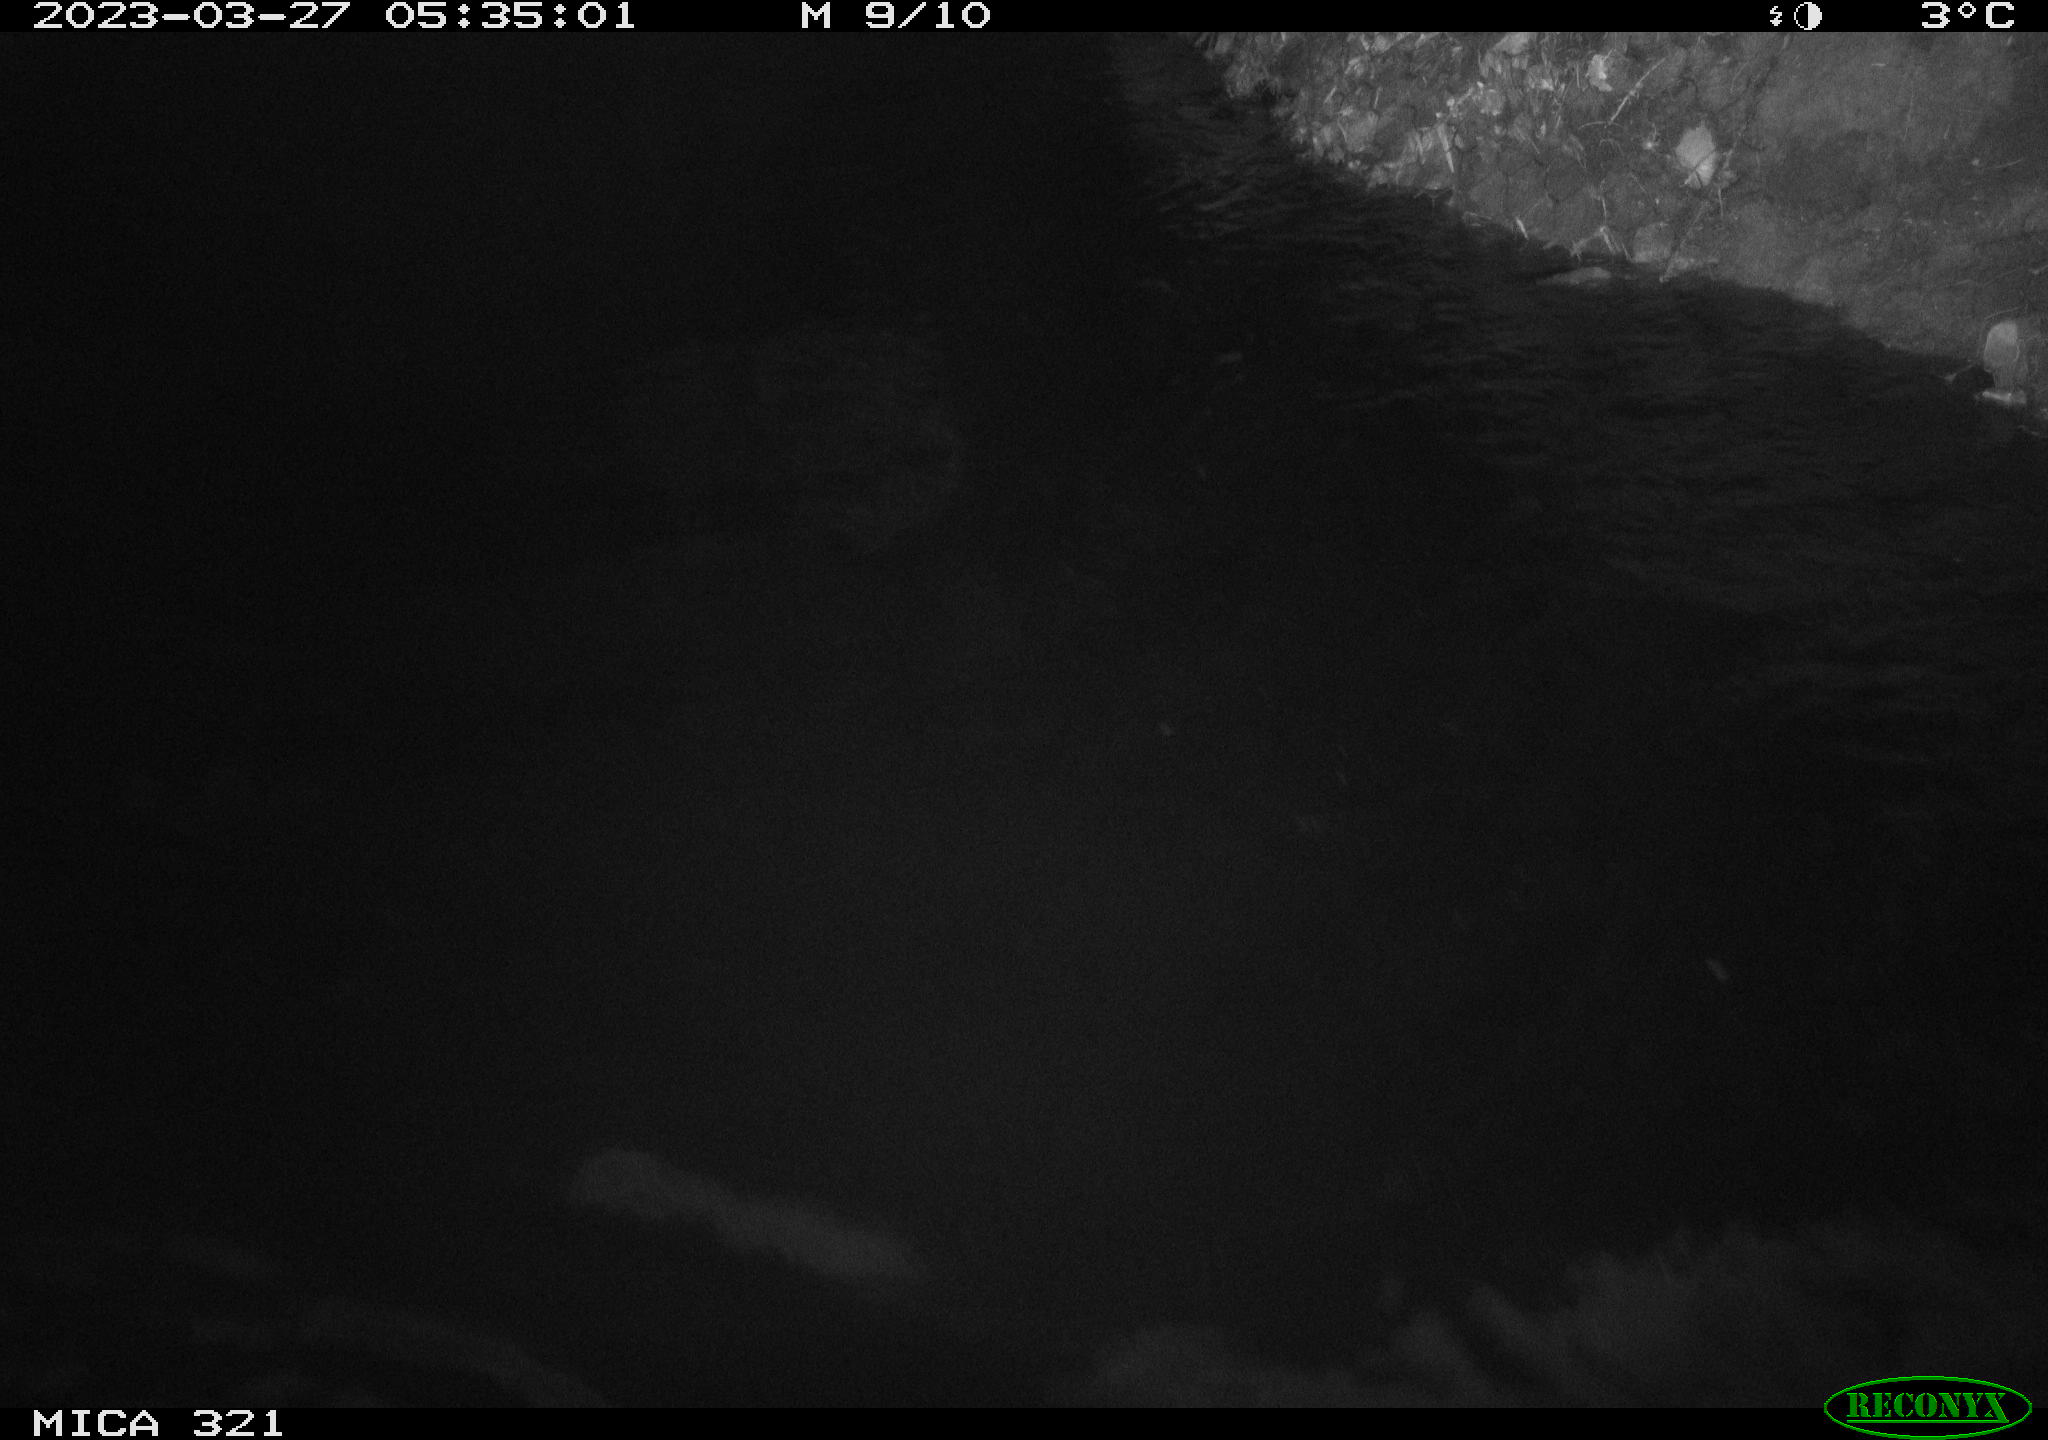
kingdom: Animalia
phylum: Chordata
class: Aves
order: Anseriformes
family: Anatidae
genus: Anas
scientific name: Anas
